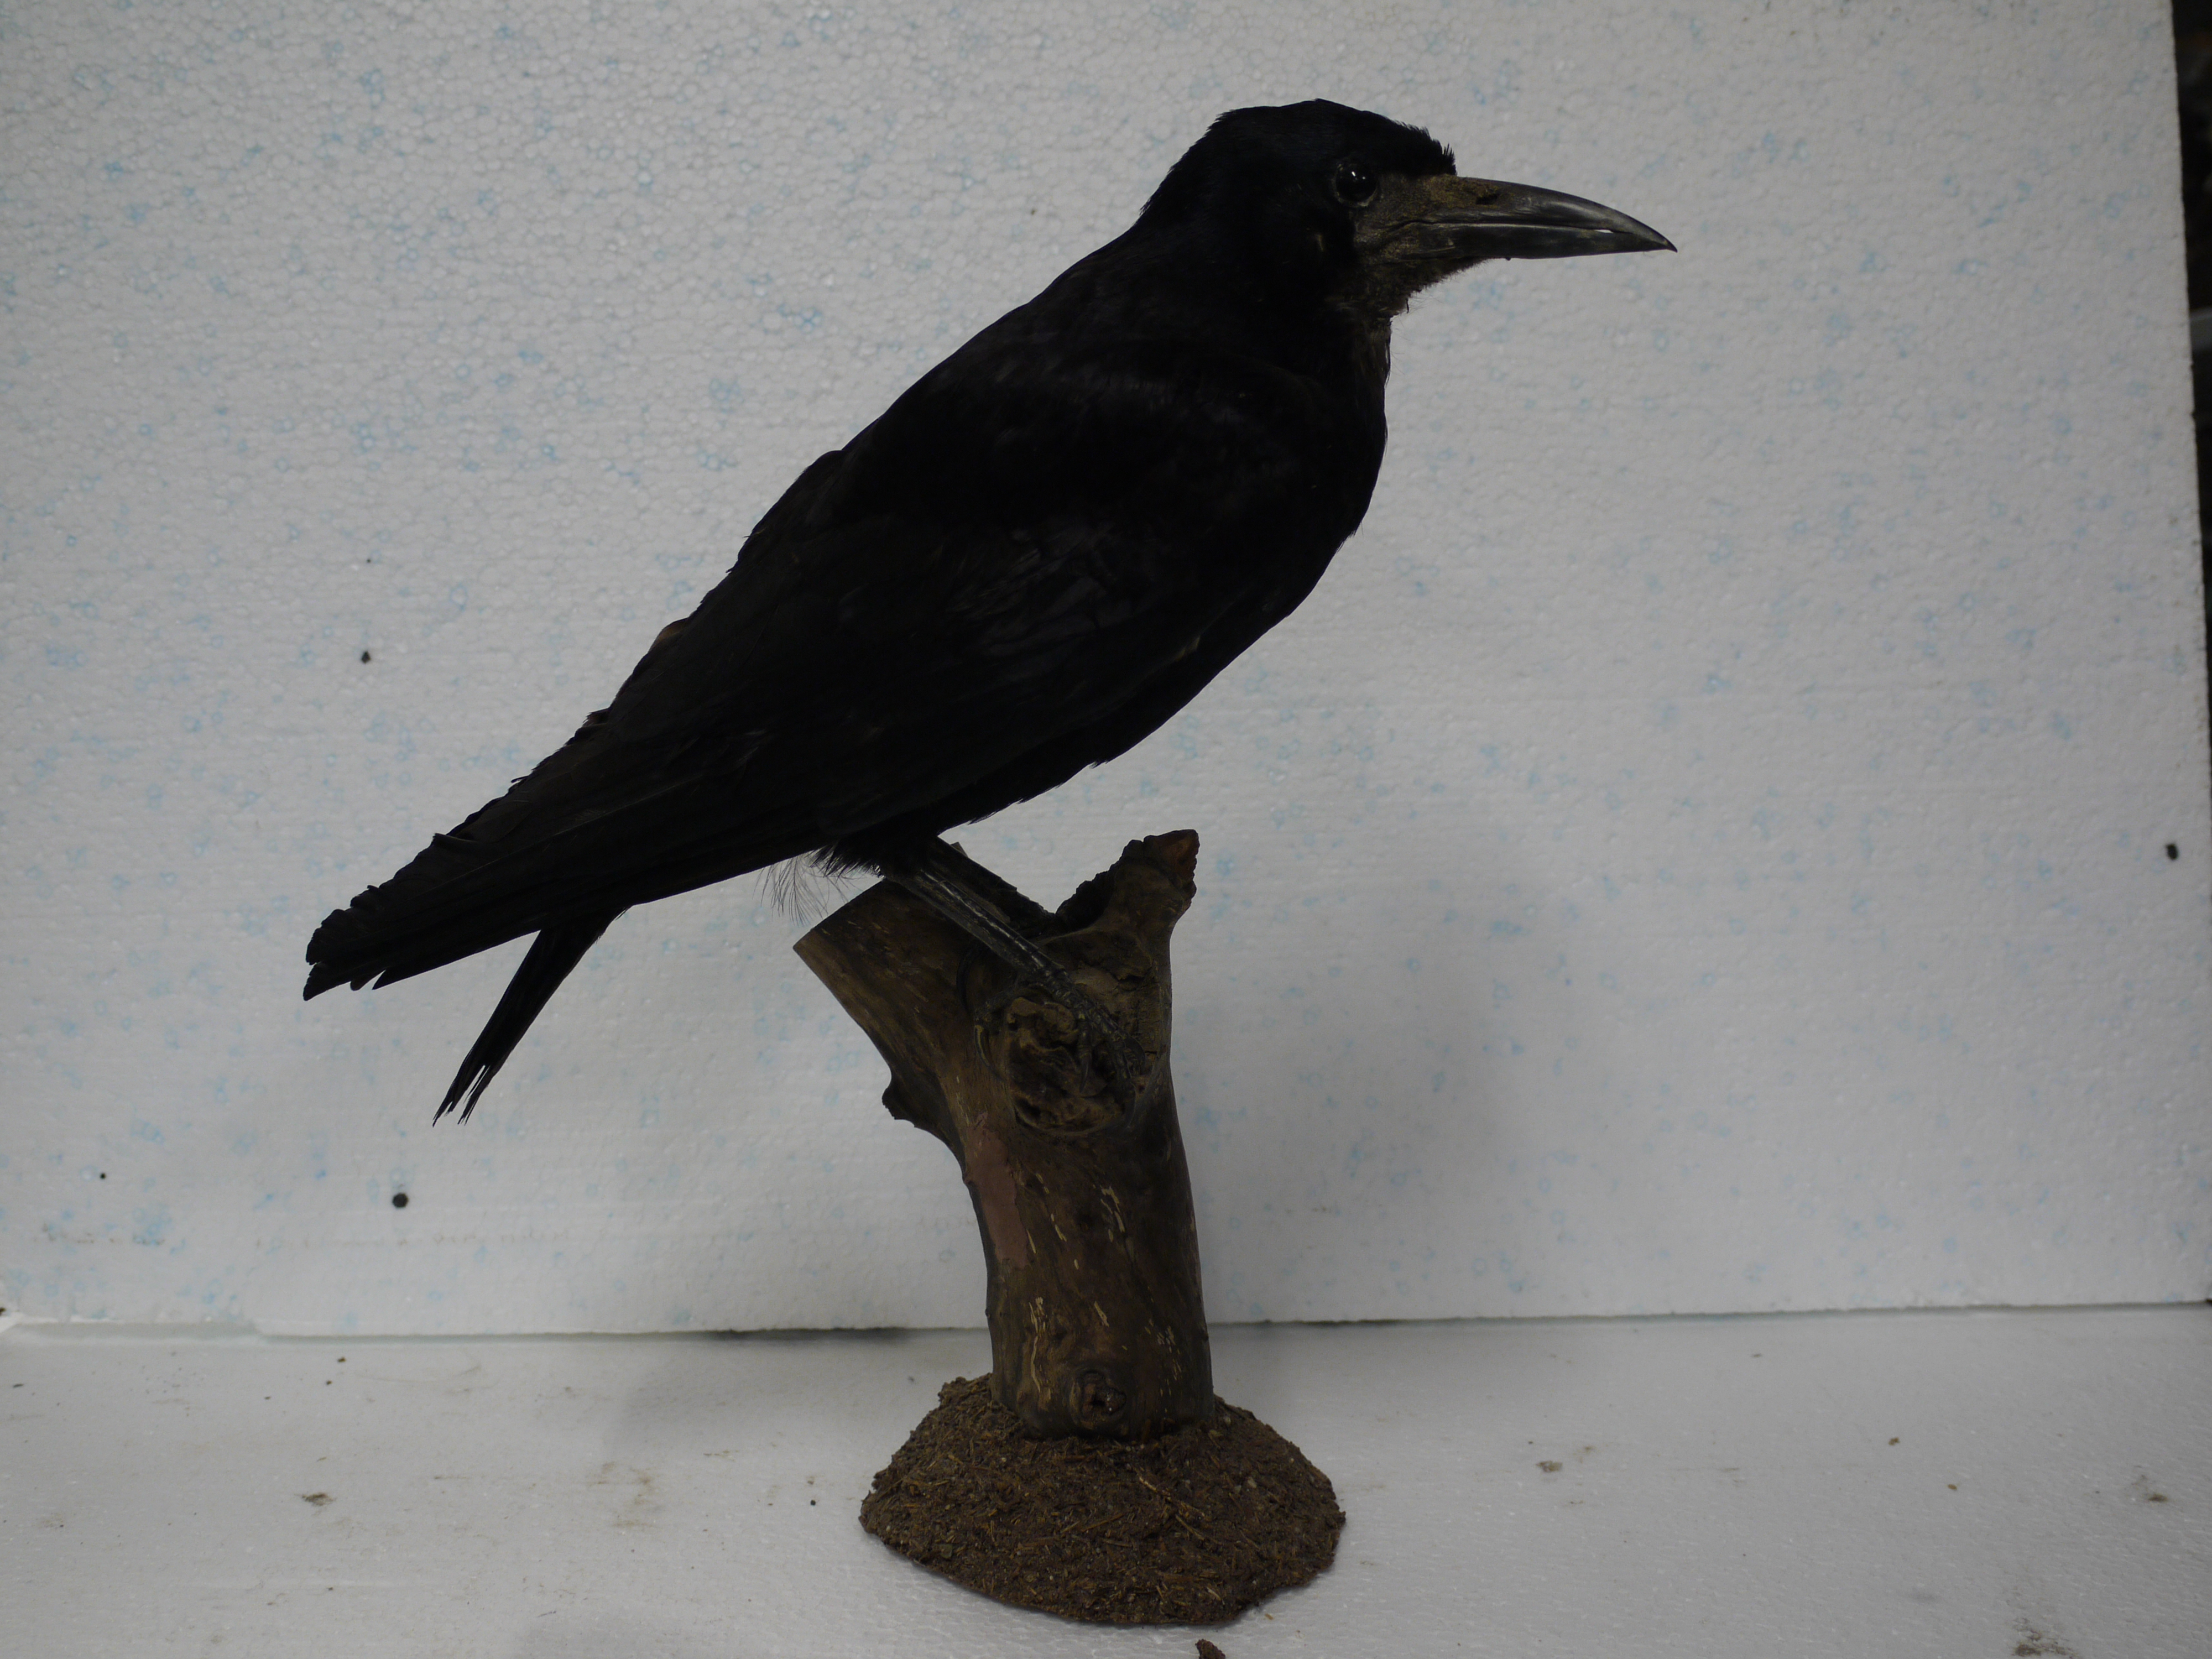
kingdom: Animalia
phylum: Chordata
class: Aves
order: Passeriformes
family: Corvidae
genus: Corvus
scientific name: Corvus frugilegus
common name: Rook
